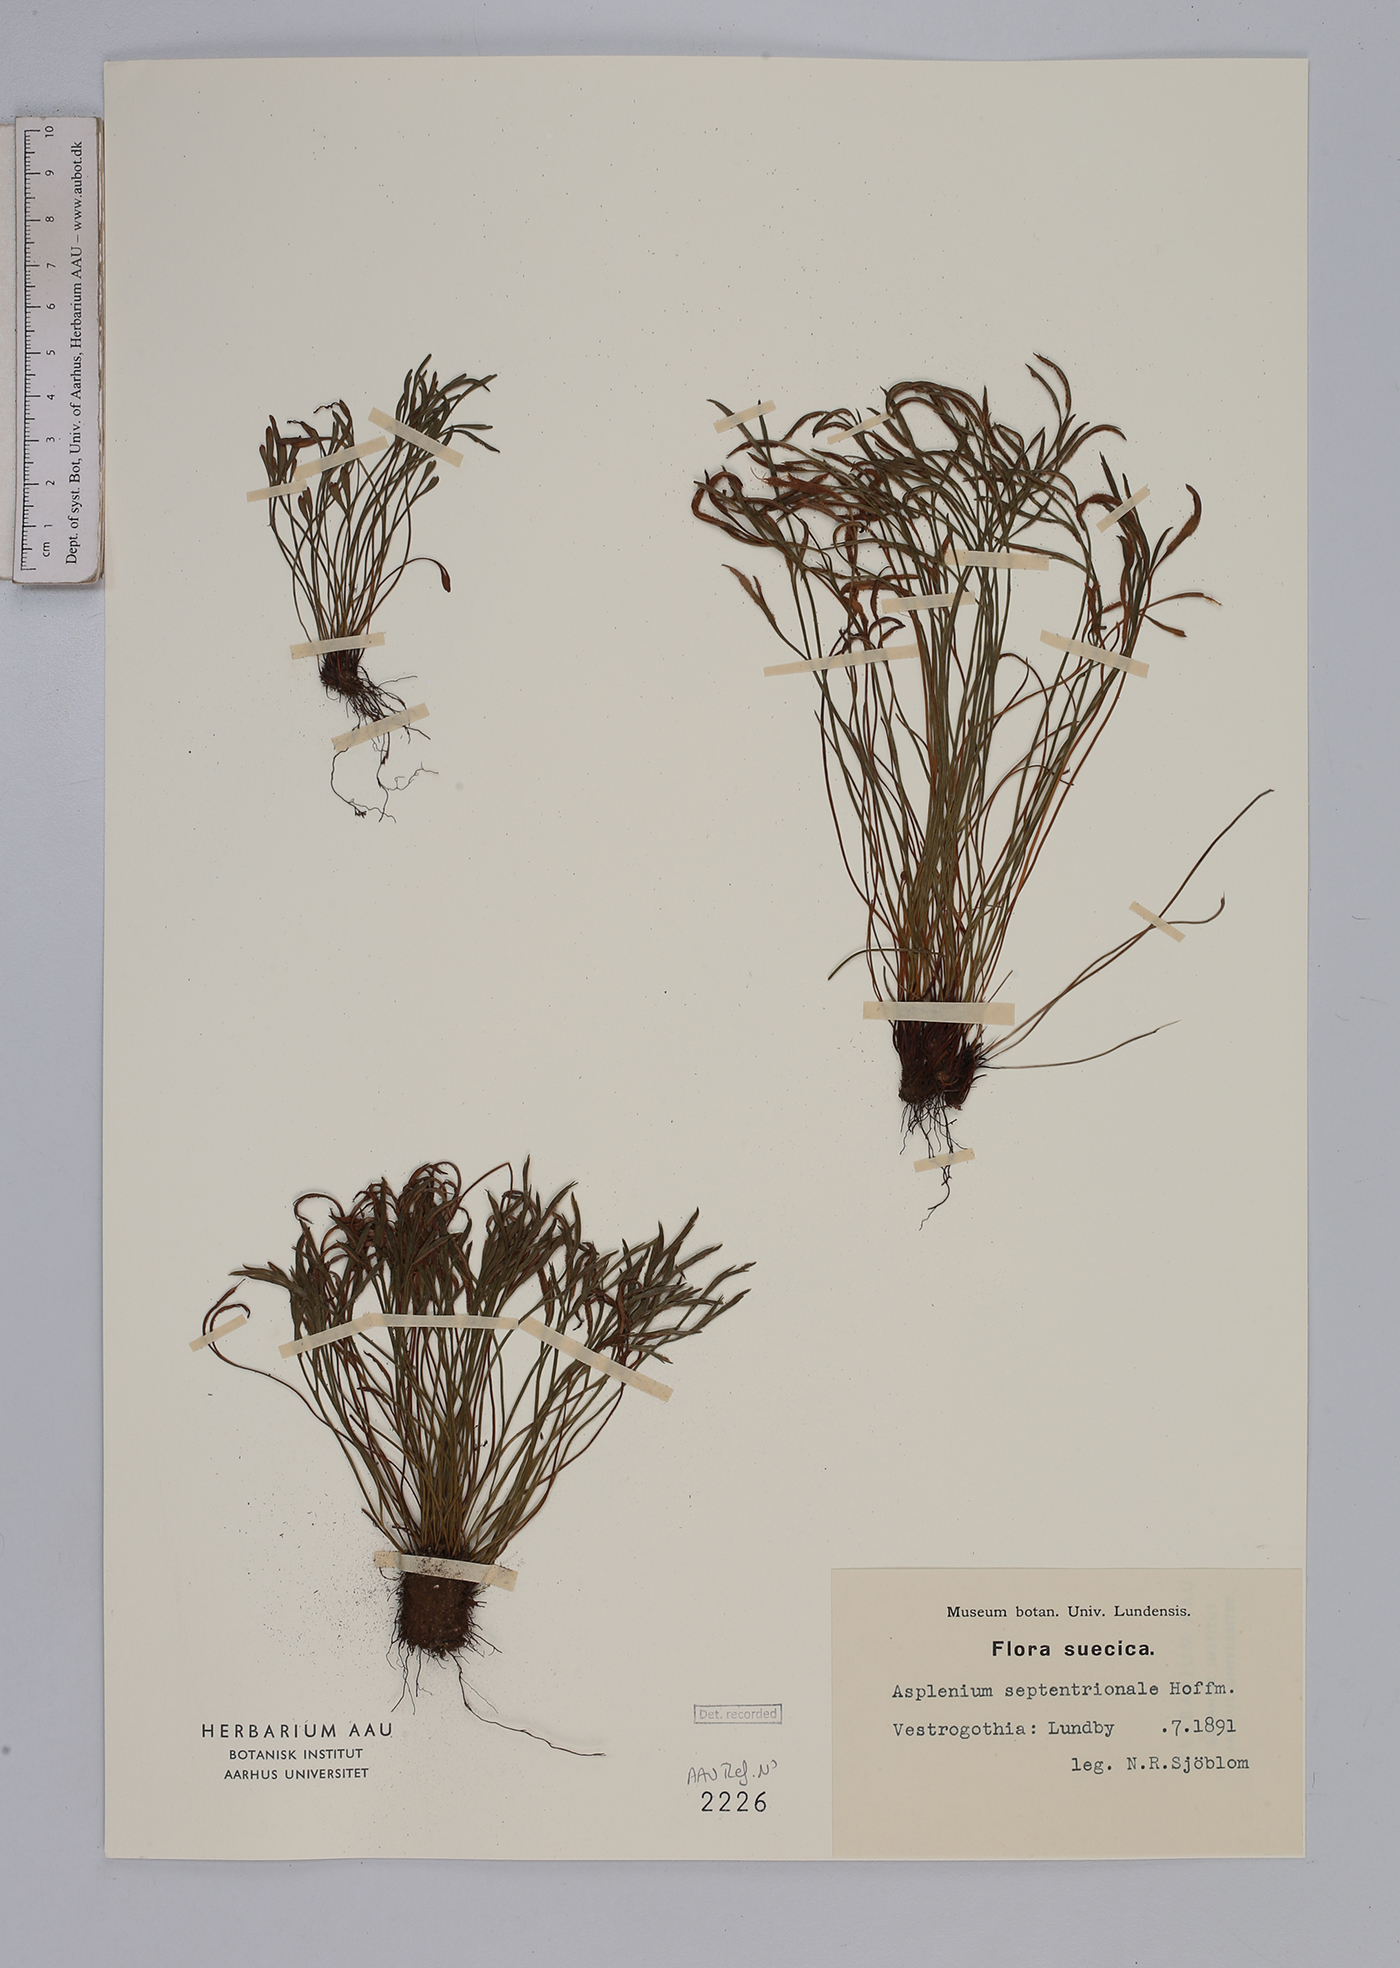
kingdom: Plantae
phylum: Tracheophyta
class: Polypodiopsida
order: Polypodiales
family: Aspleniaceae
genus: Asplenium
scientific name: Asplenium septentrionale
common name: Forked spleenwort
